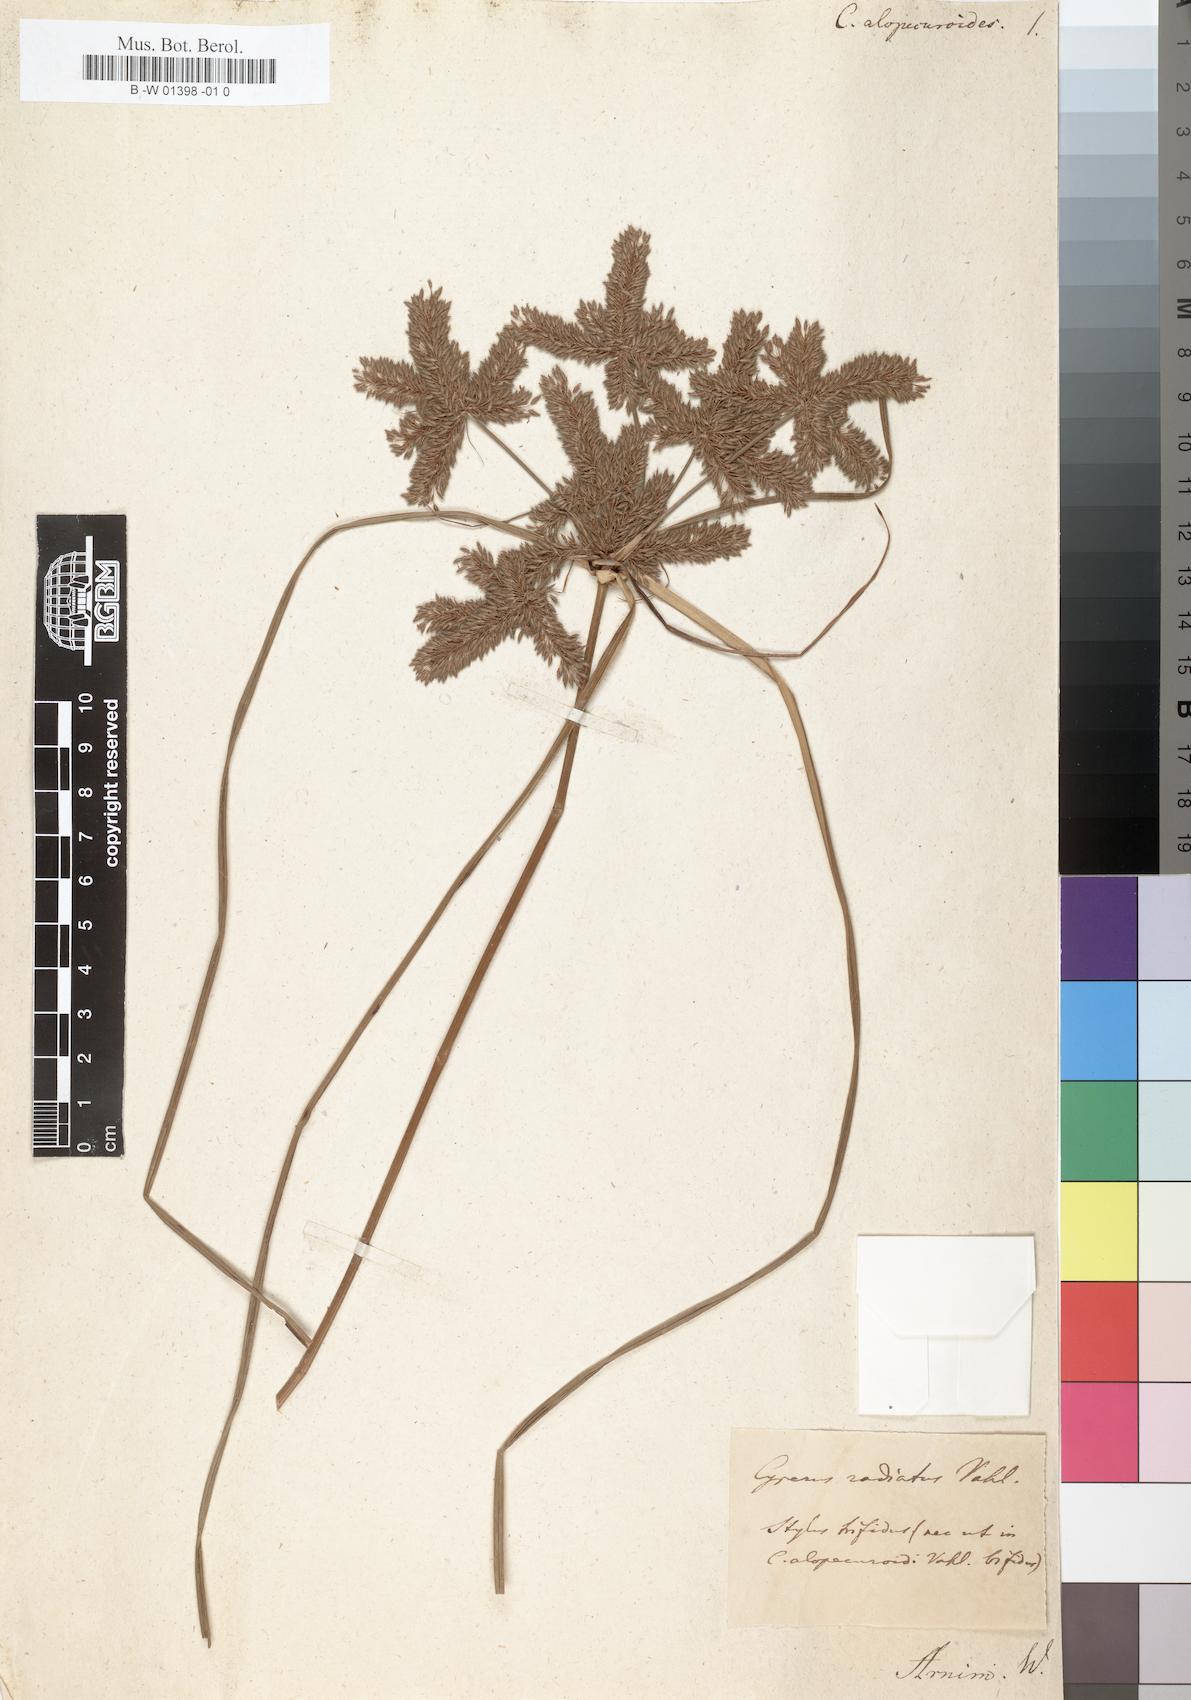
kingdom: Plantae
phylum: Tracheophyta
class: Liliopsida
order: Poales
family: Cyperaceae
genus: Cyperus
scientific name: Cyperus alopecuroides
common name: Foxtail flatsedge
